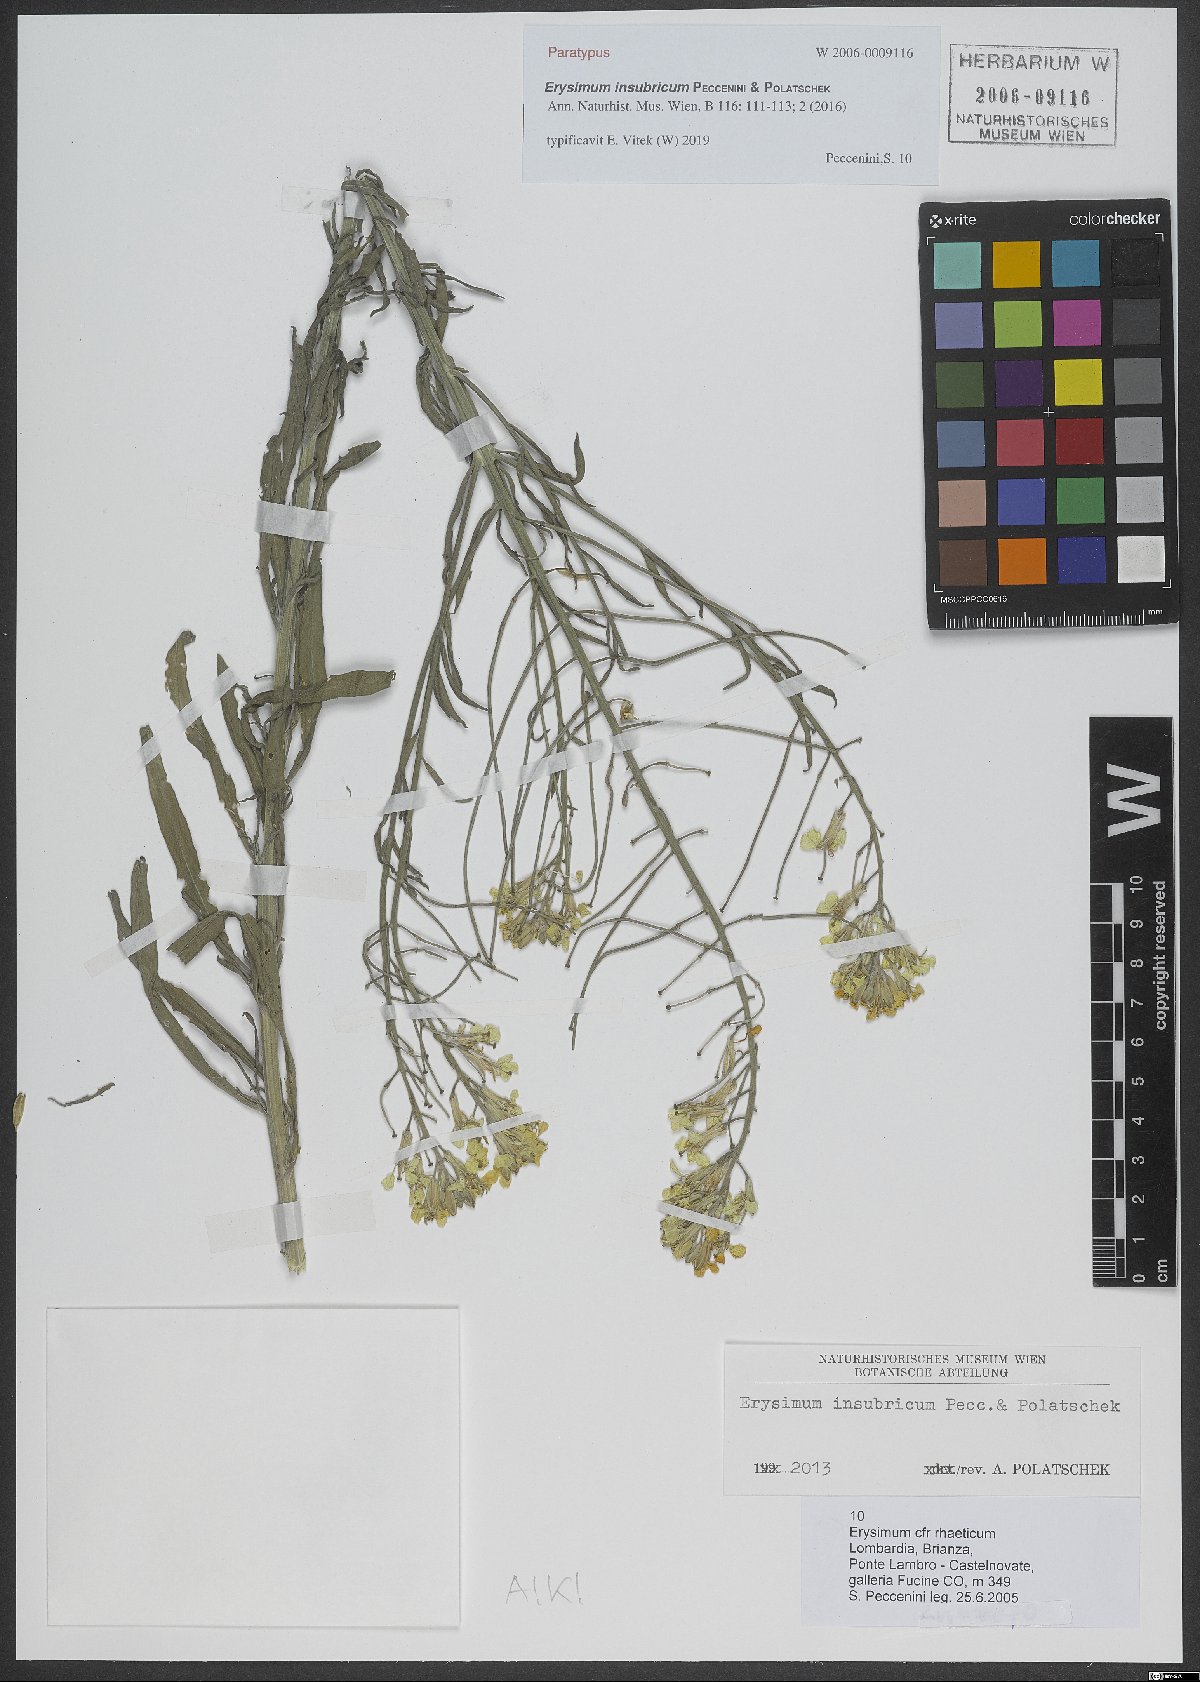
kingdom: Plantae
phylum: Tracheophyta
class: Magnoliopsida
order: Brassicales
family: Brassicaceae
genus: Erysimum
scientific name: Erysimum insubricum
